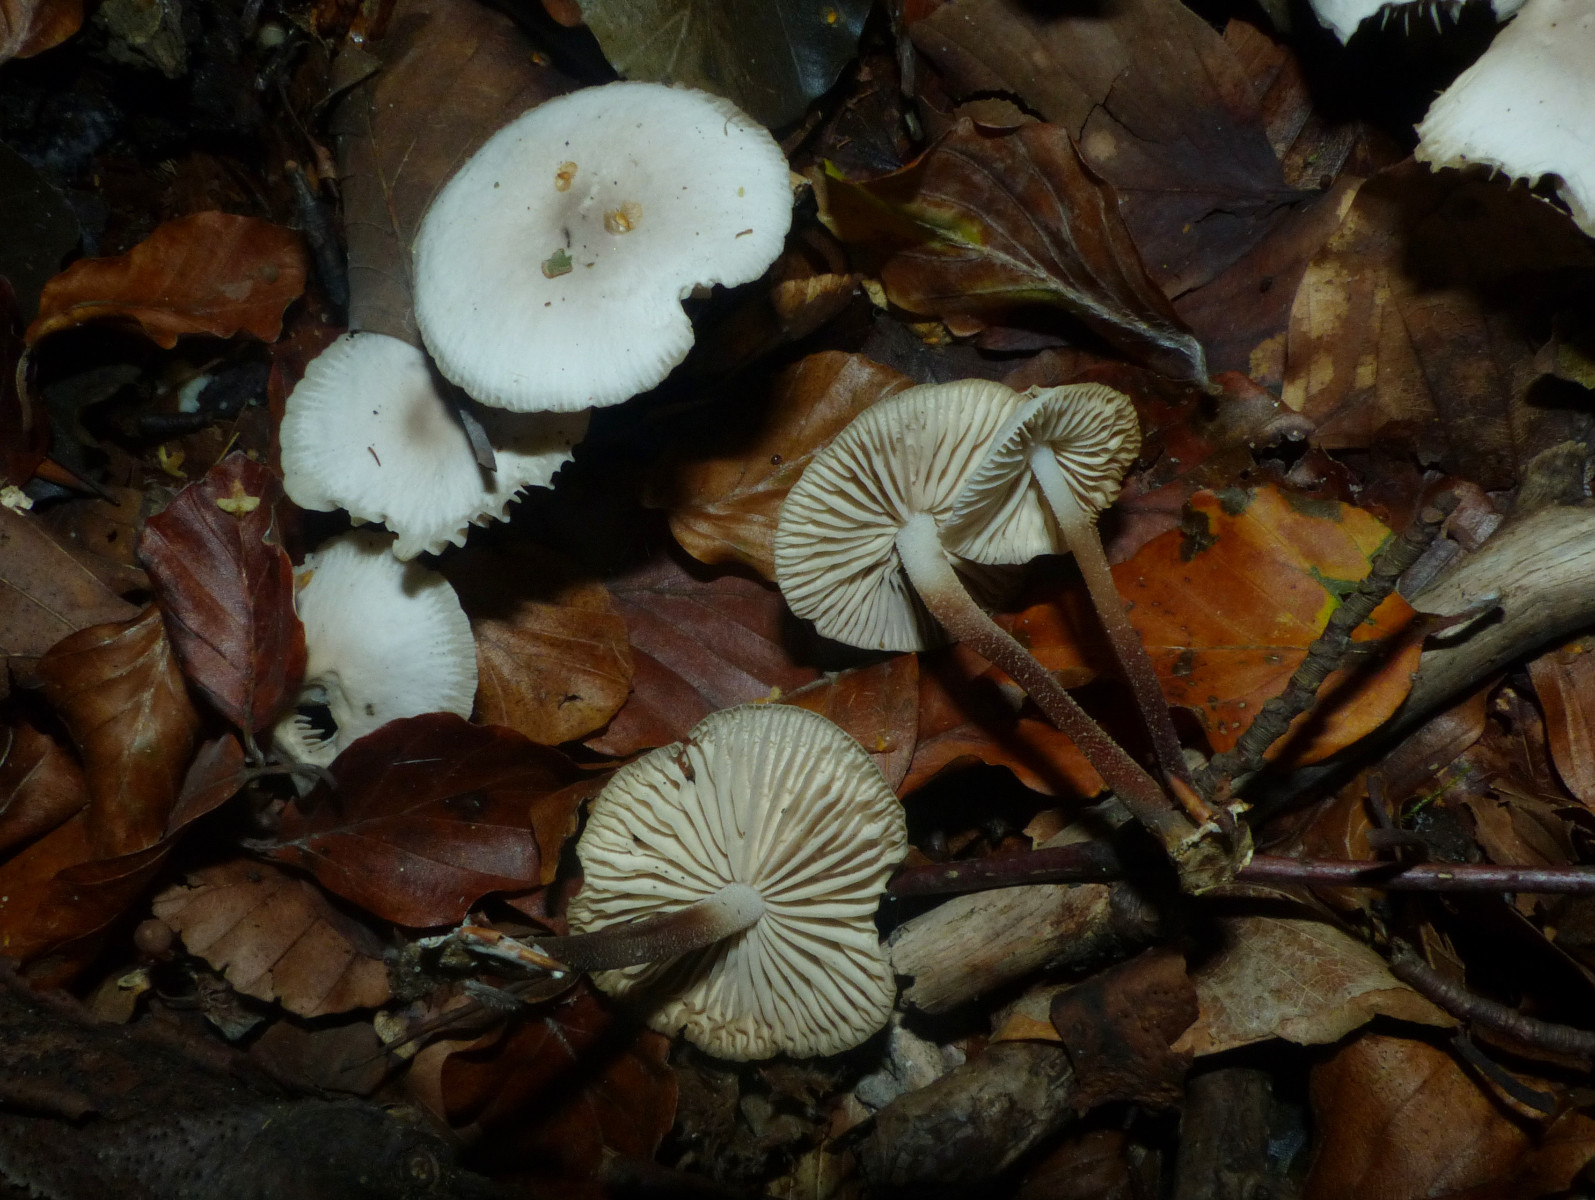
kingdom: Fungi
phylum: Basidiomycota
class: Agaricomycetes
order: Agaricales
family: Marasmiaceae
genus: Marasmius
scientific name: Marasmius wynneae
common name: hvælvet bruskhat
